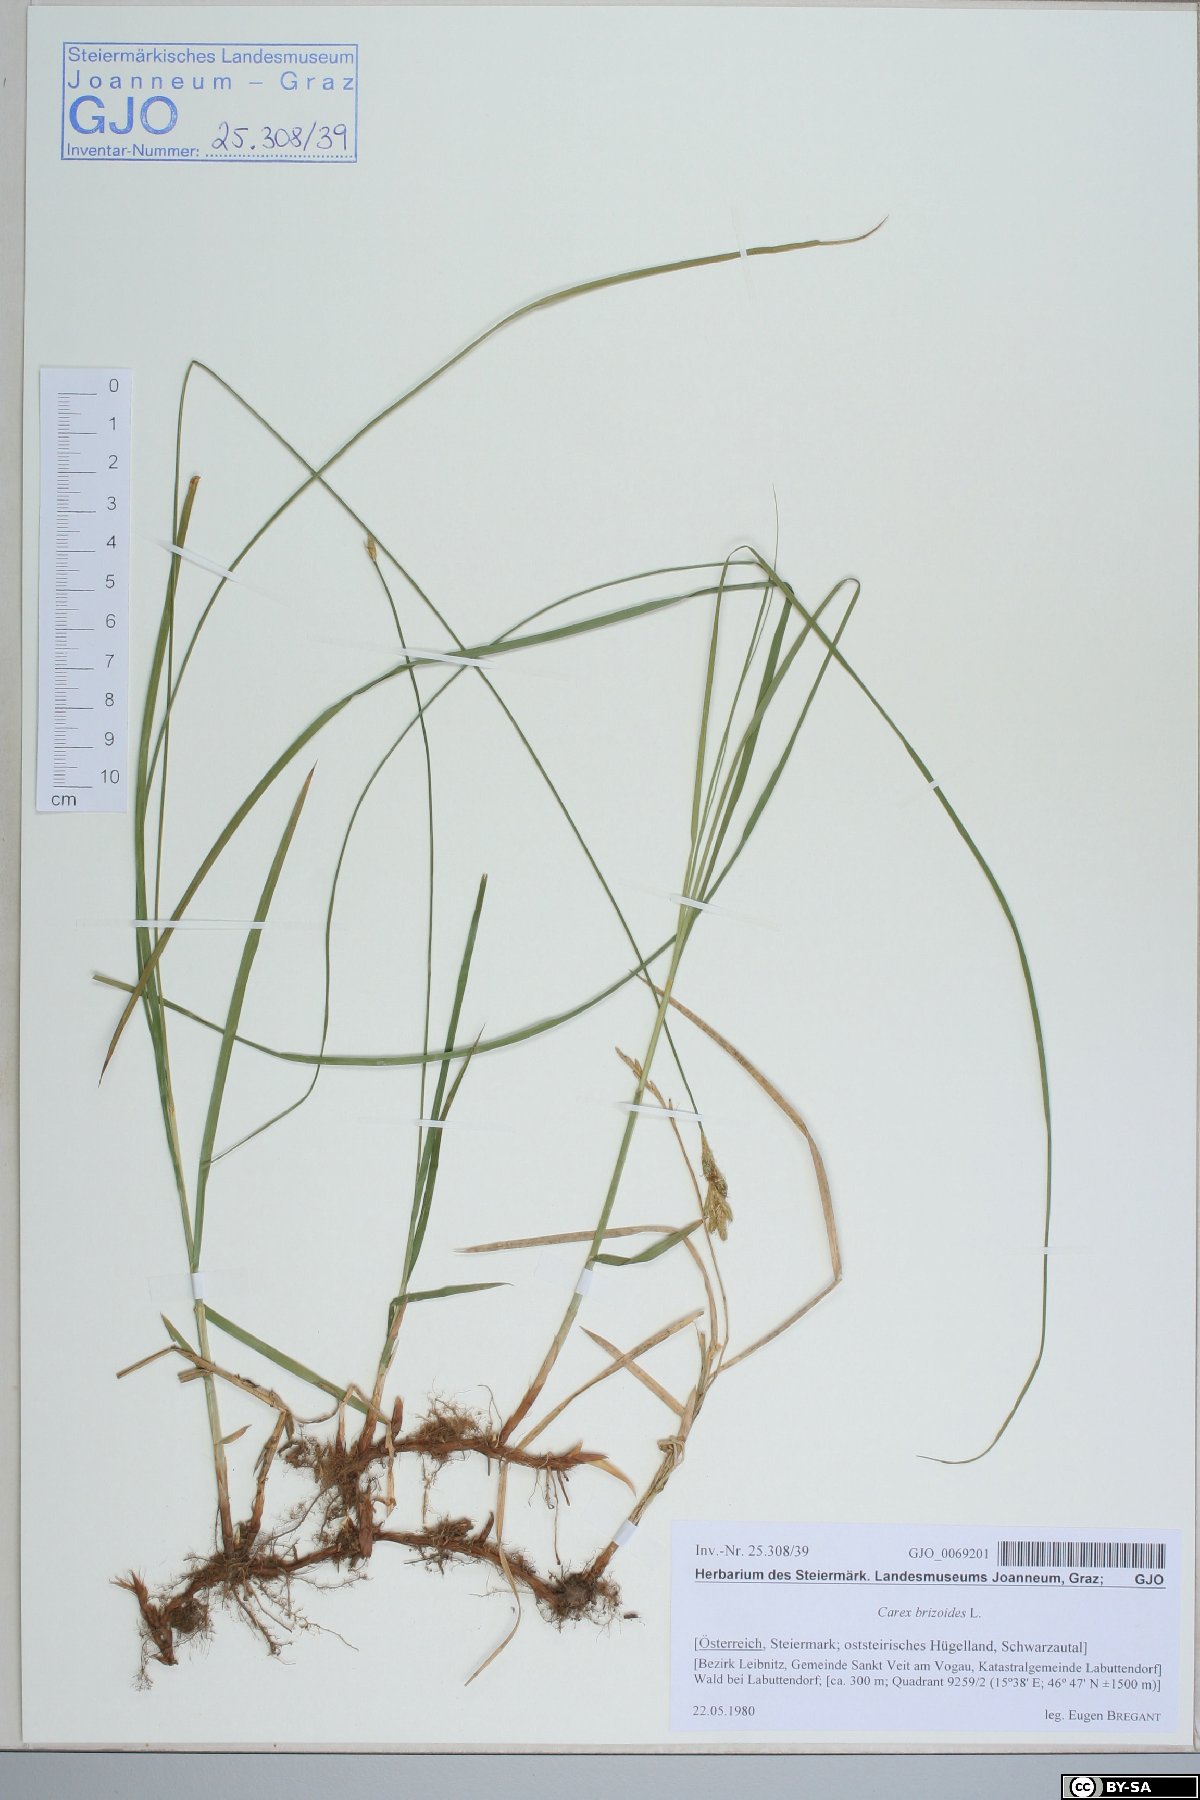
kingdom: Plantae
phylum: Tracheophyta
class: Liliopsida
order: Poales
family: Cyperaceae
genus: Carex
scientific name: Carex brizoides
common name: Quaking-grass sedge
